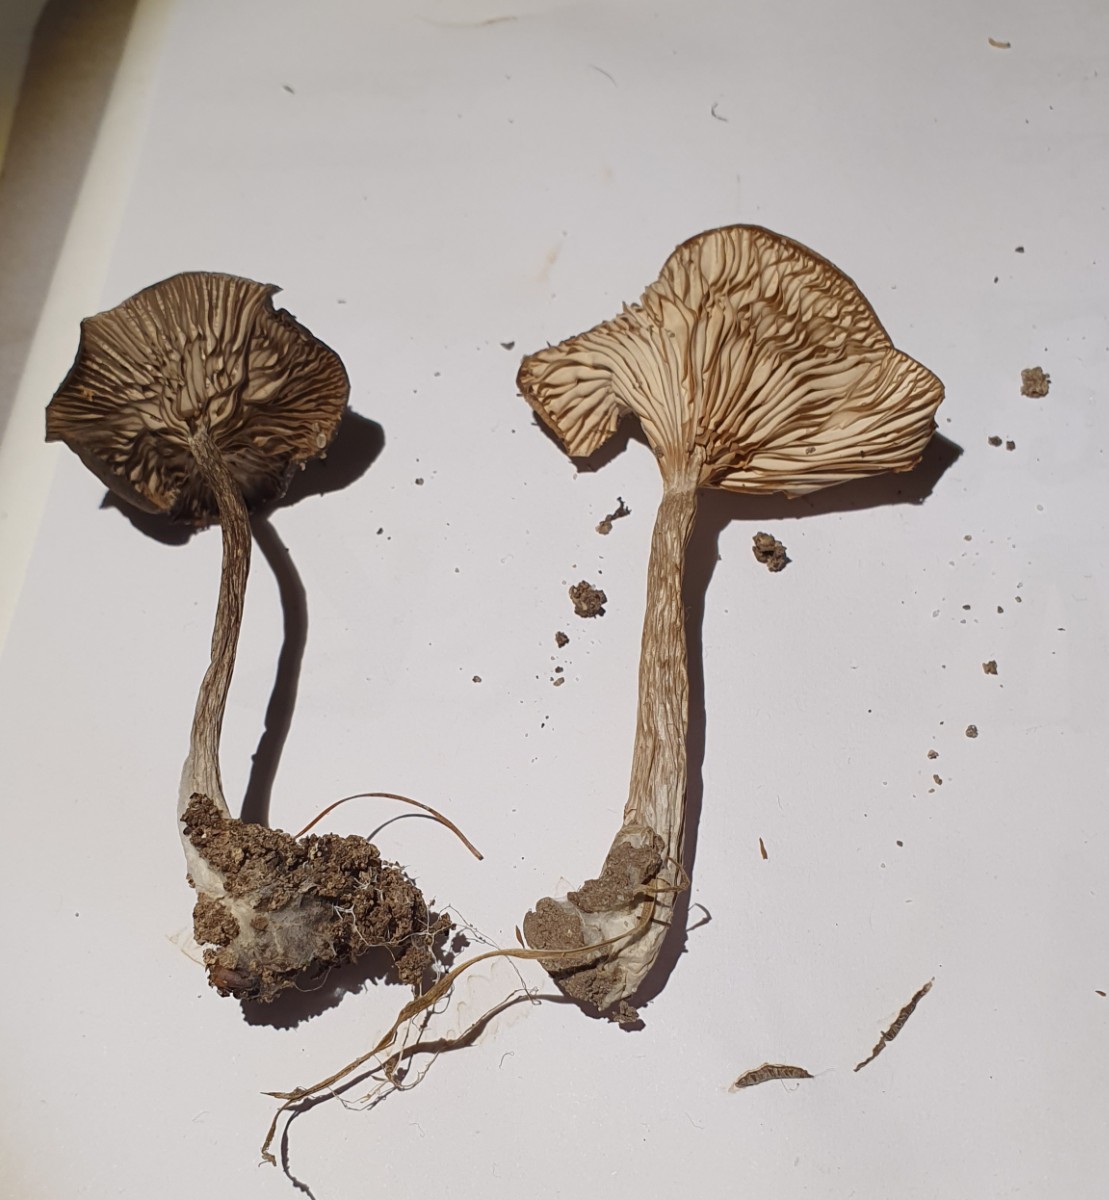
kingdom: Fungi
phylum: Basidiomycota
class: Agaricomycetes
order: Agaricales
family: Pseudoclitocybaceae
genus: Pseudoclitocybe
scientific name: Pseudoclitocybe expallens
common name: lille bægertragthat
